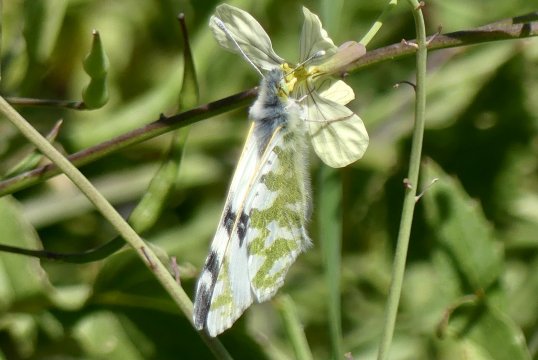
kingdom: Animalia
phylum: Arthropoda
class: Insecta
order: Lepidoptera
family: Pieridae
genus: Euchloe
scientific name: Euchloe belemia
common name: Green-striped White
